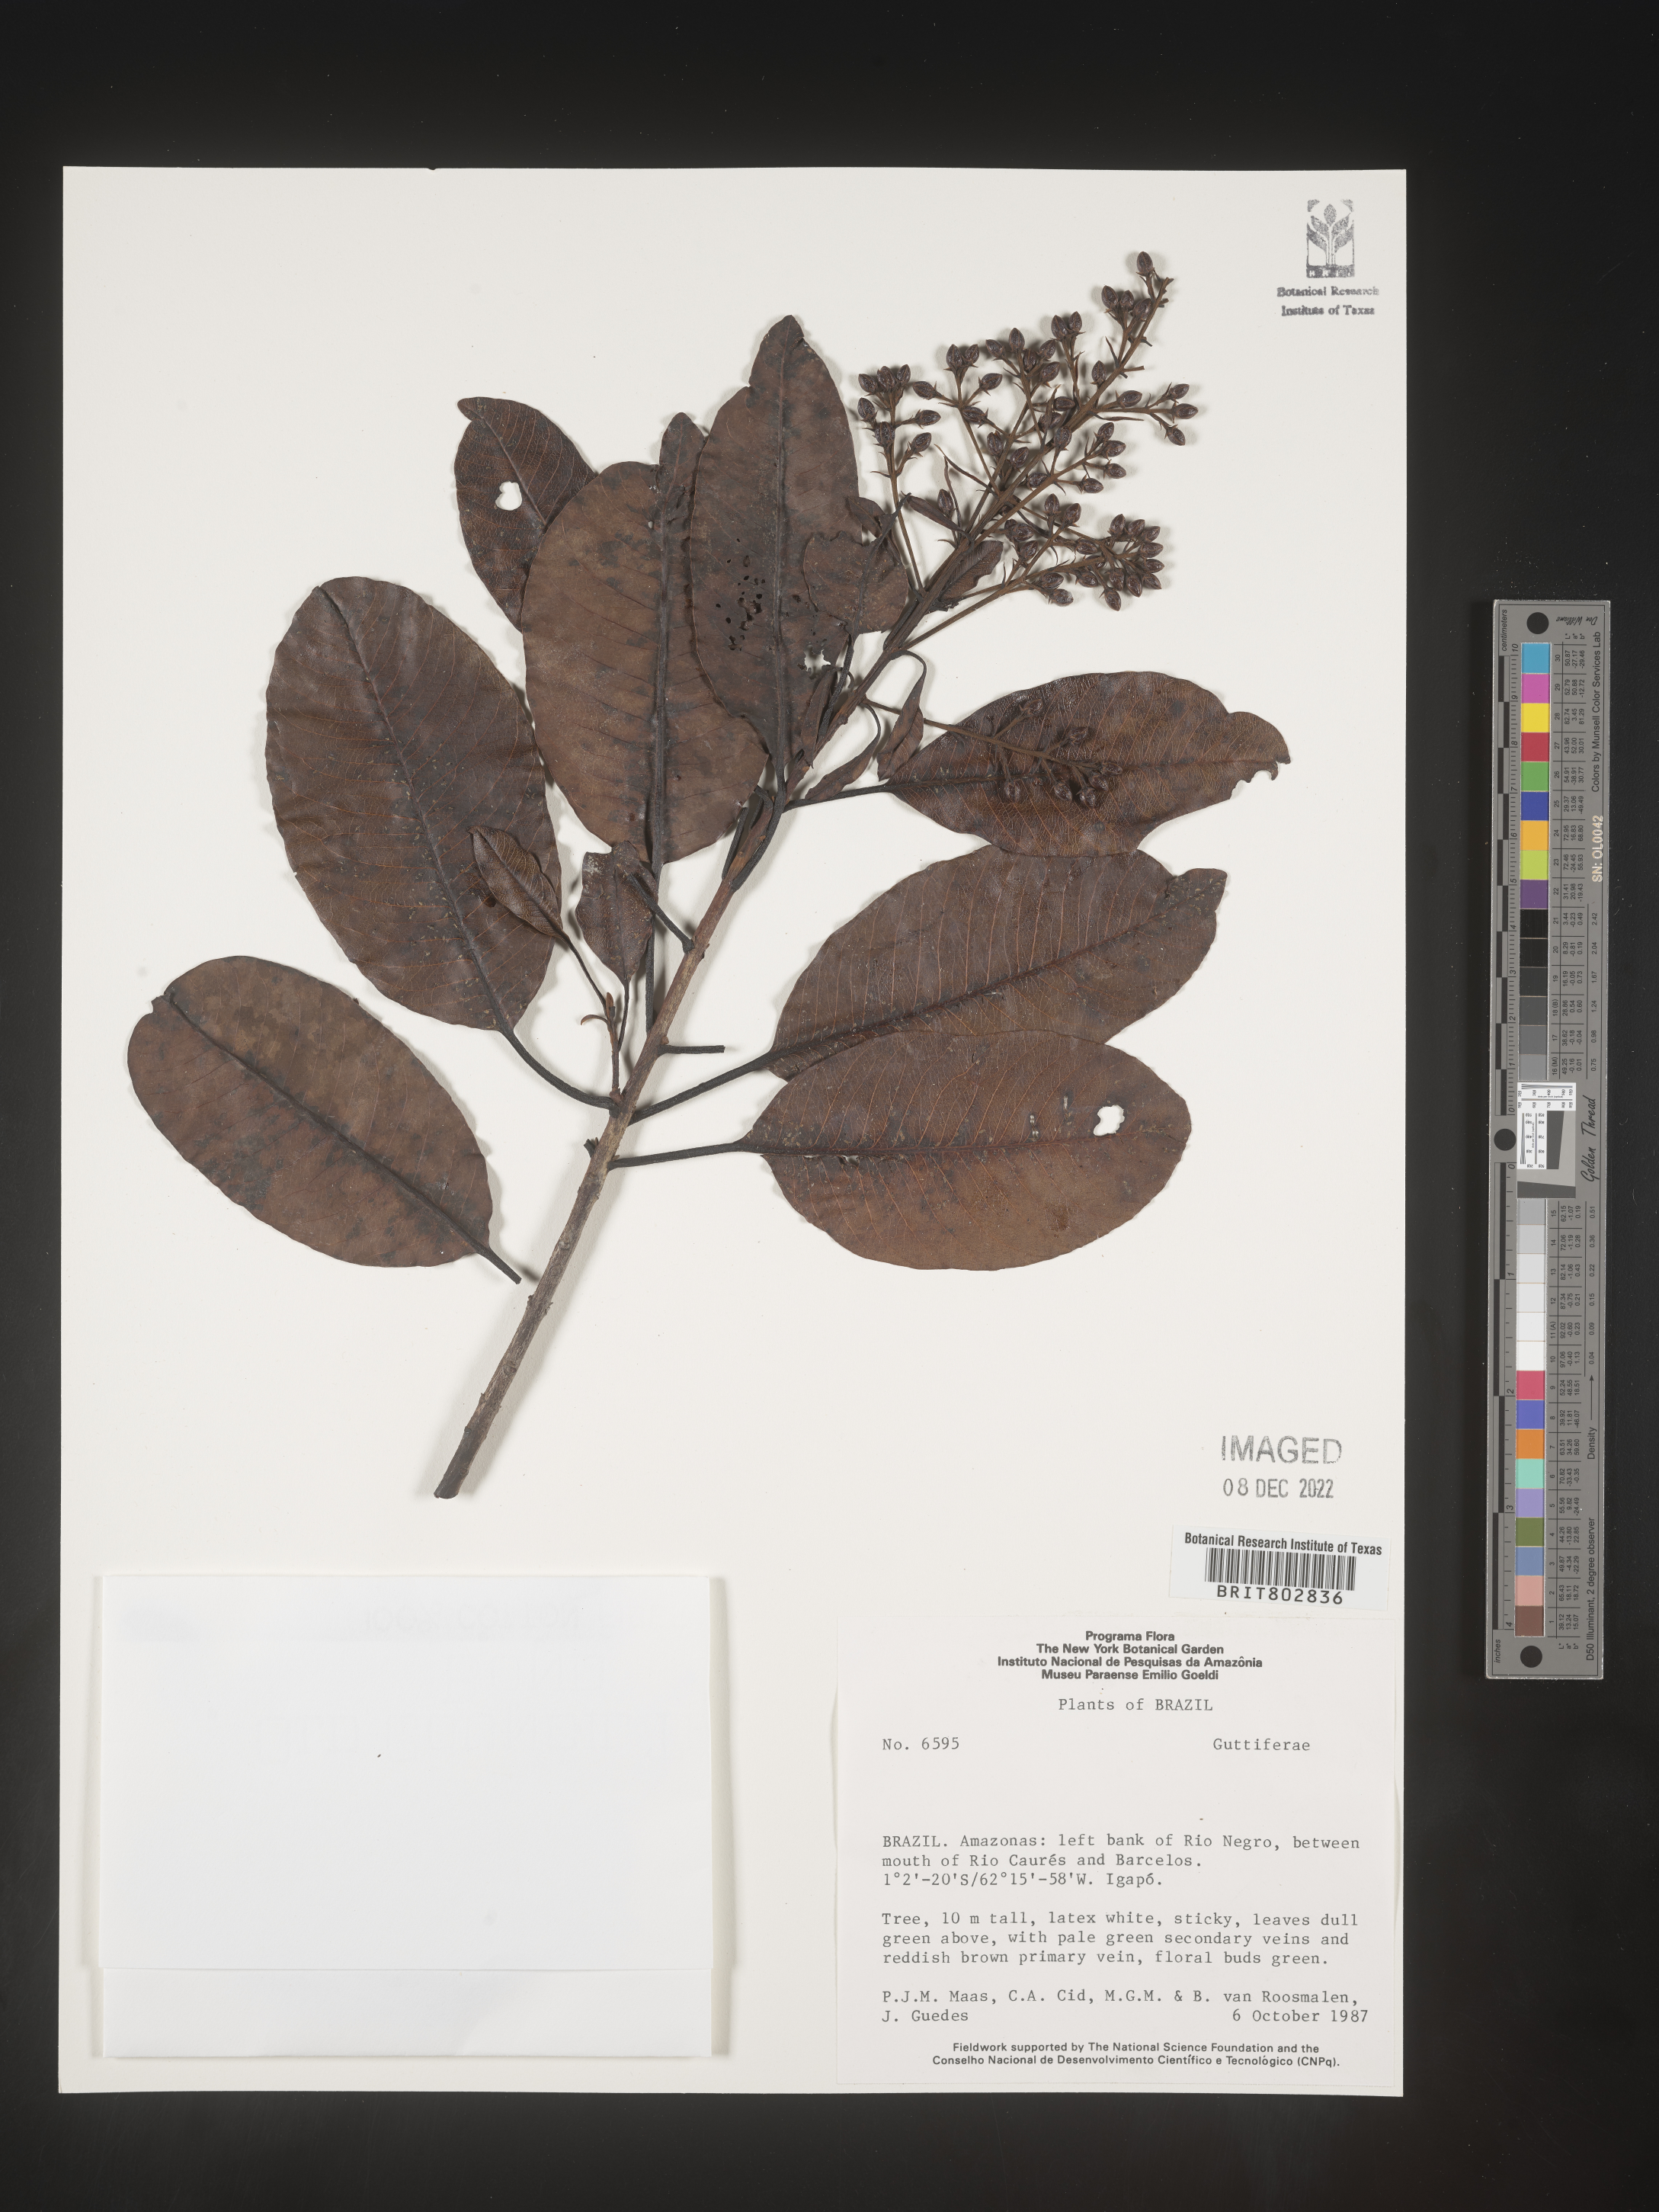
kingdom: Plantae
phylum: Tracheophyta
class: Magnoliopsida
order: Malpighiales
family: Calophyllaceae
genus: Haploclathra
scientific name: Haploclathra
